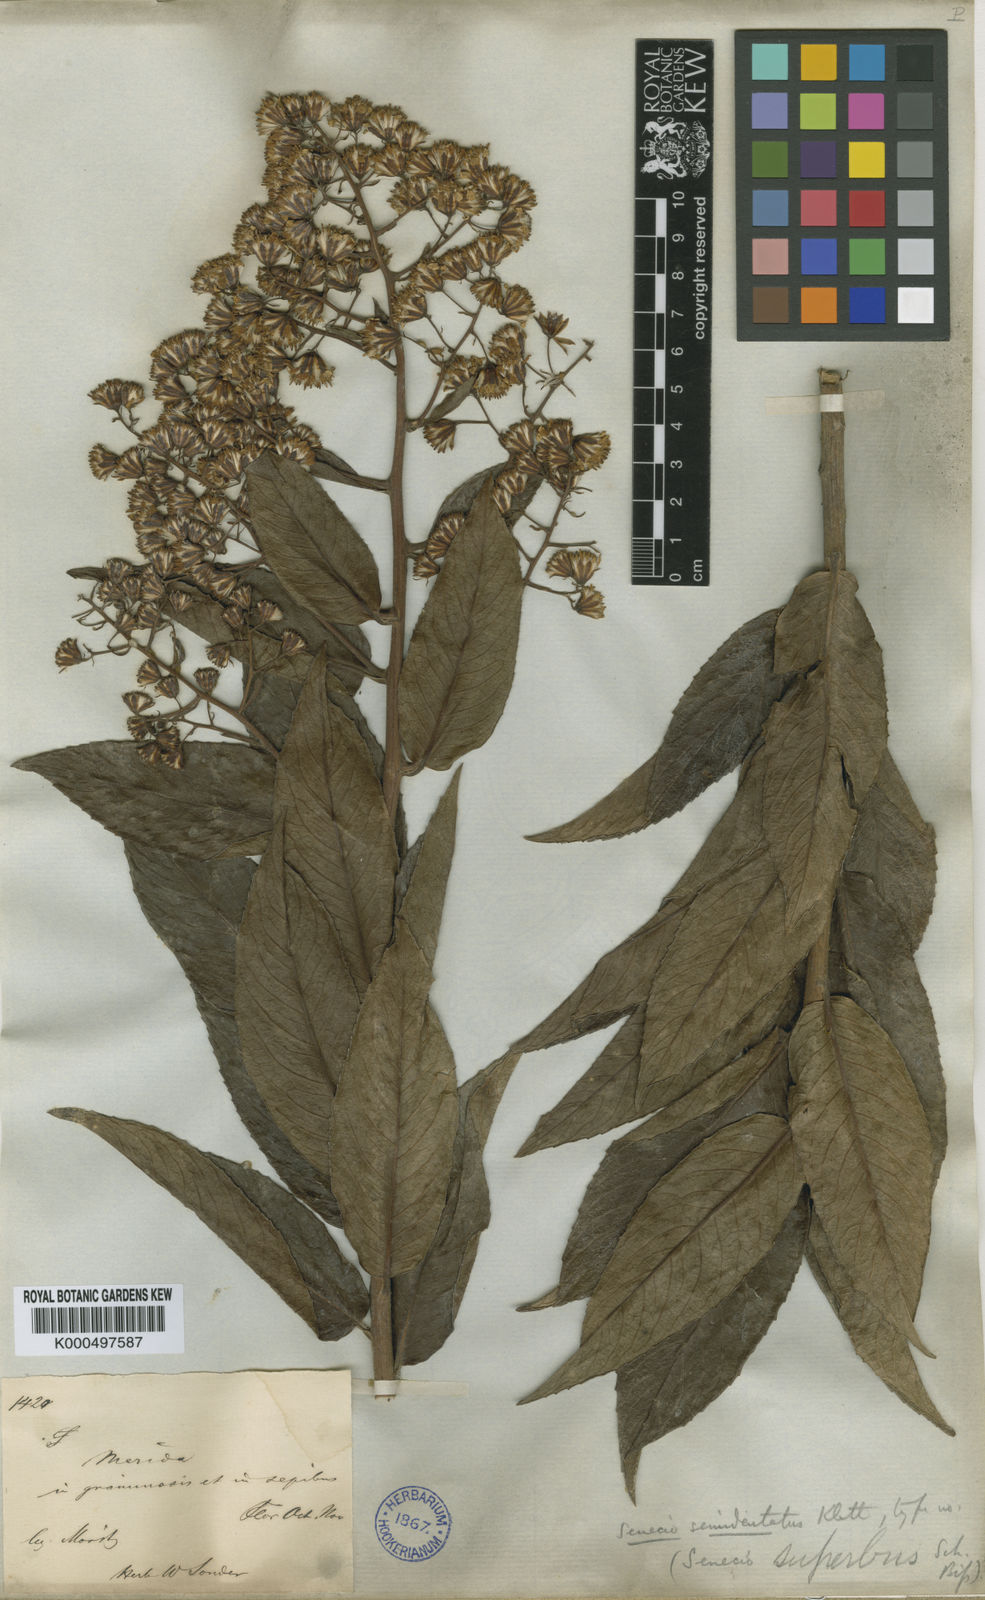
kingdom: Plantae
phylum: Tracheophyta
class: Magnoliopsida
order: Asterales
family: Asteraceae
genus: Dendrophorbium
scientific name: Dendrophorbium reflexum
